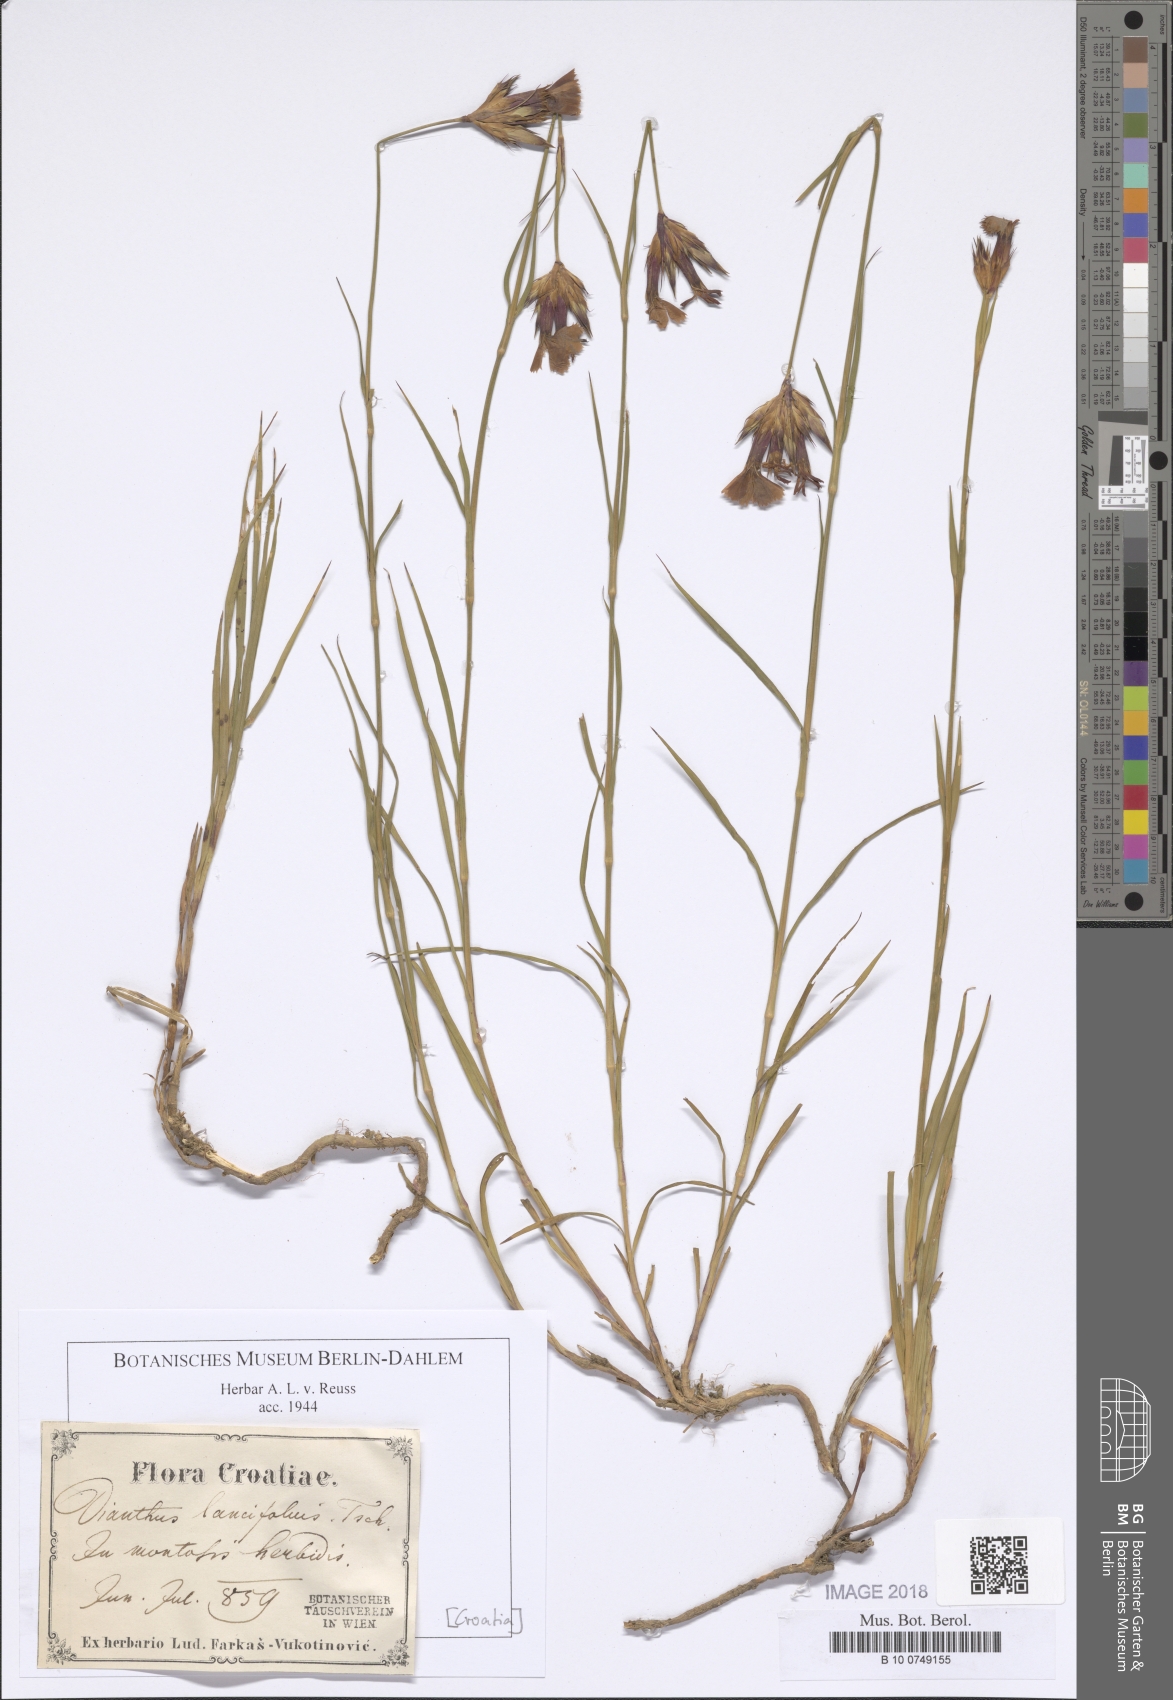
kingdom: Plantae
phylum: Tracheophyta
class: Magnoliopsida
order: Caryophyllales
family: Caryophyllaceae
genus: Dianthus
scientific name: Dianthus trifasciculatus
